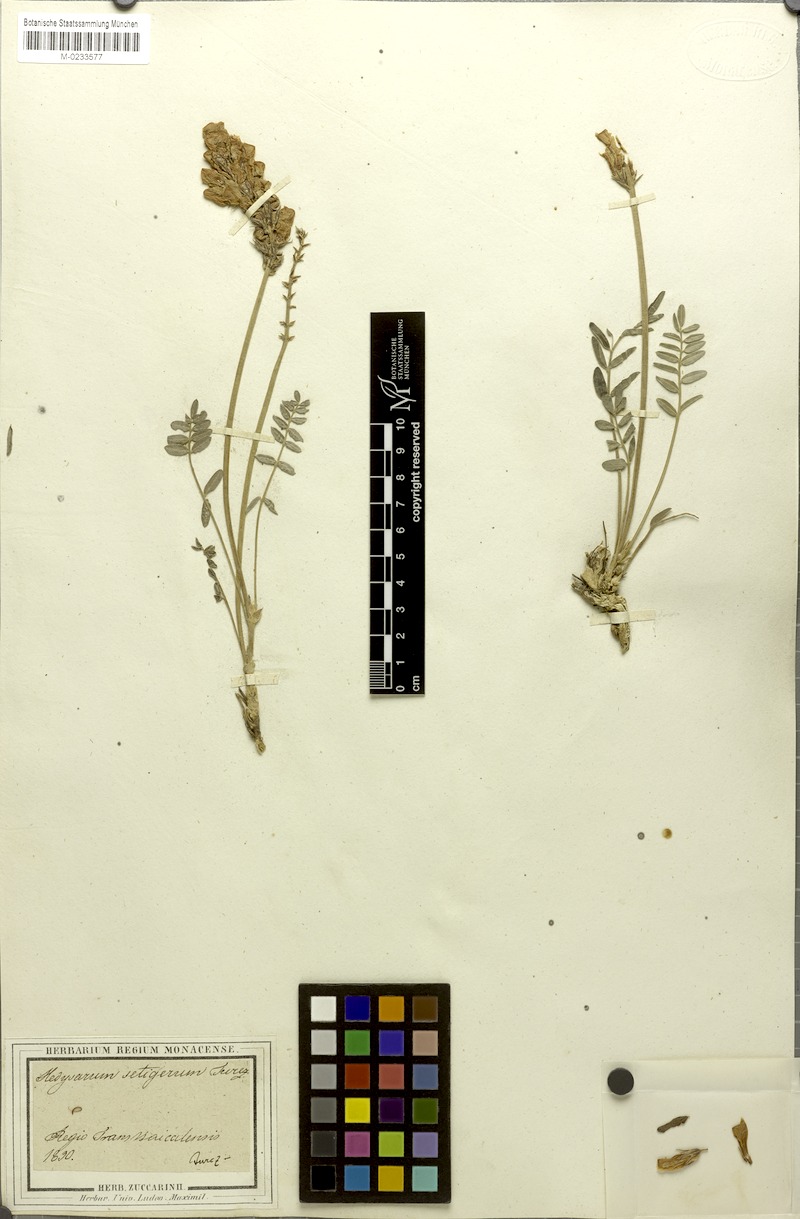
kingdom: Plantae
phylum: Tracheophyta
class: Magnoliopsida
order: Fabales
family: Fabaceae
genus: Hedysarum
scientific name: Hedysarum setigerum
